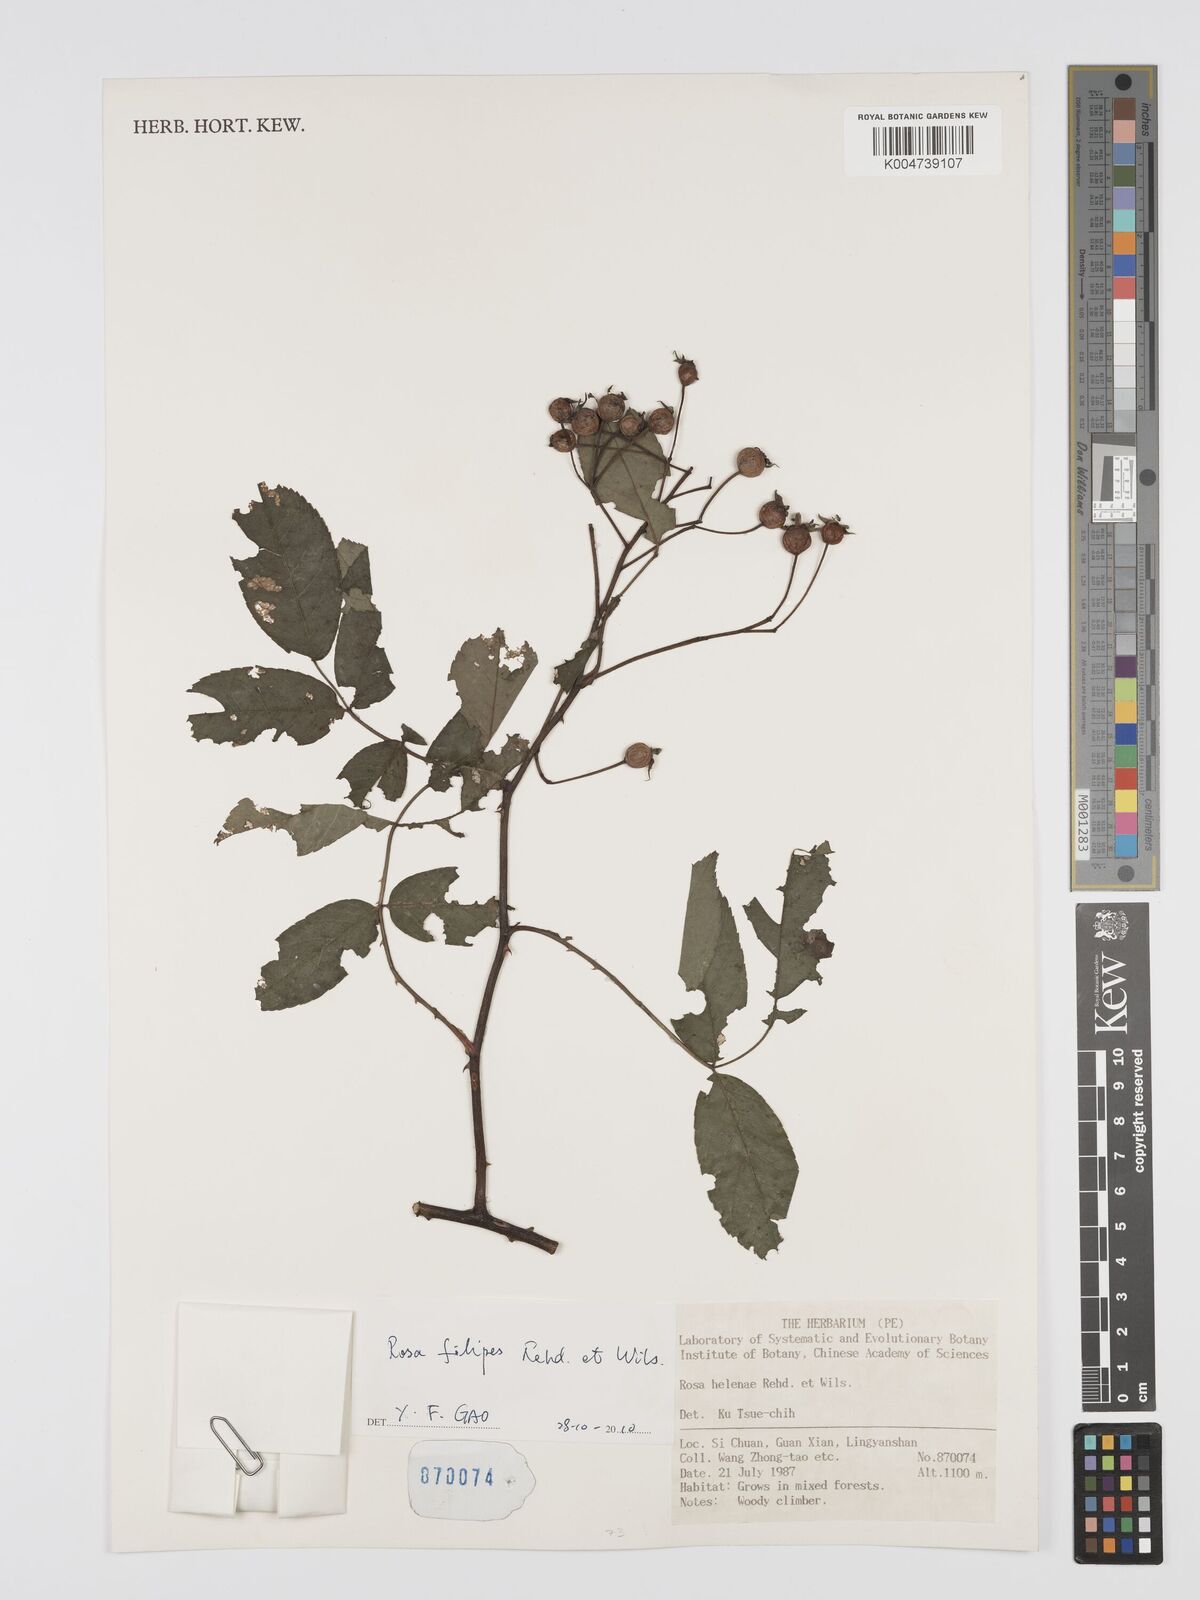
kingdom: Plantae
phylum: Tracheophyta
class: Magnoliopsida
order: Rosales
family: Rosaceae
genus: Rosa
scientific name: Rosa filipes
